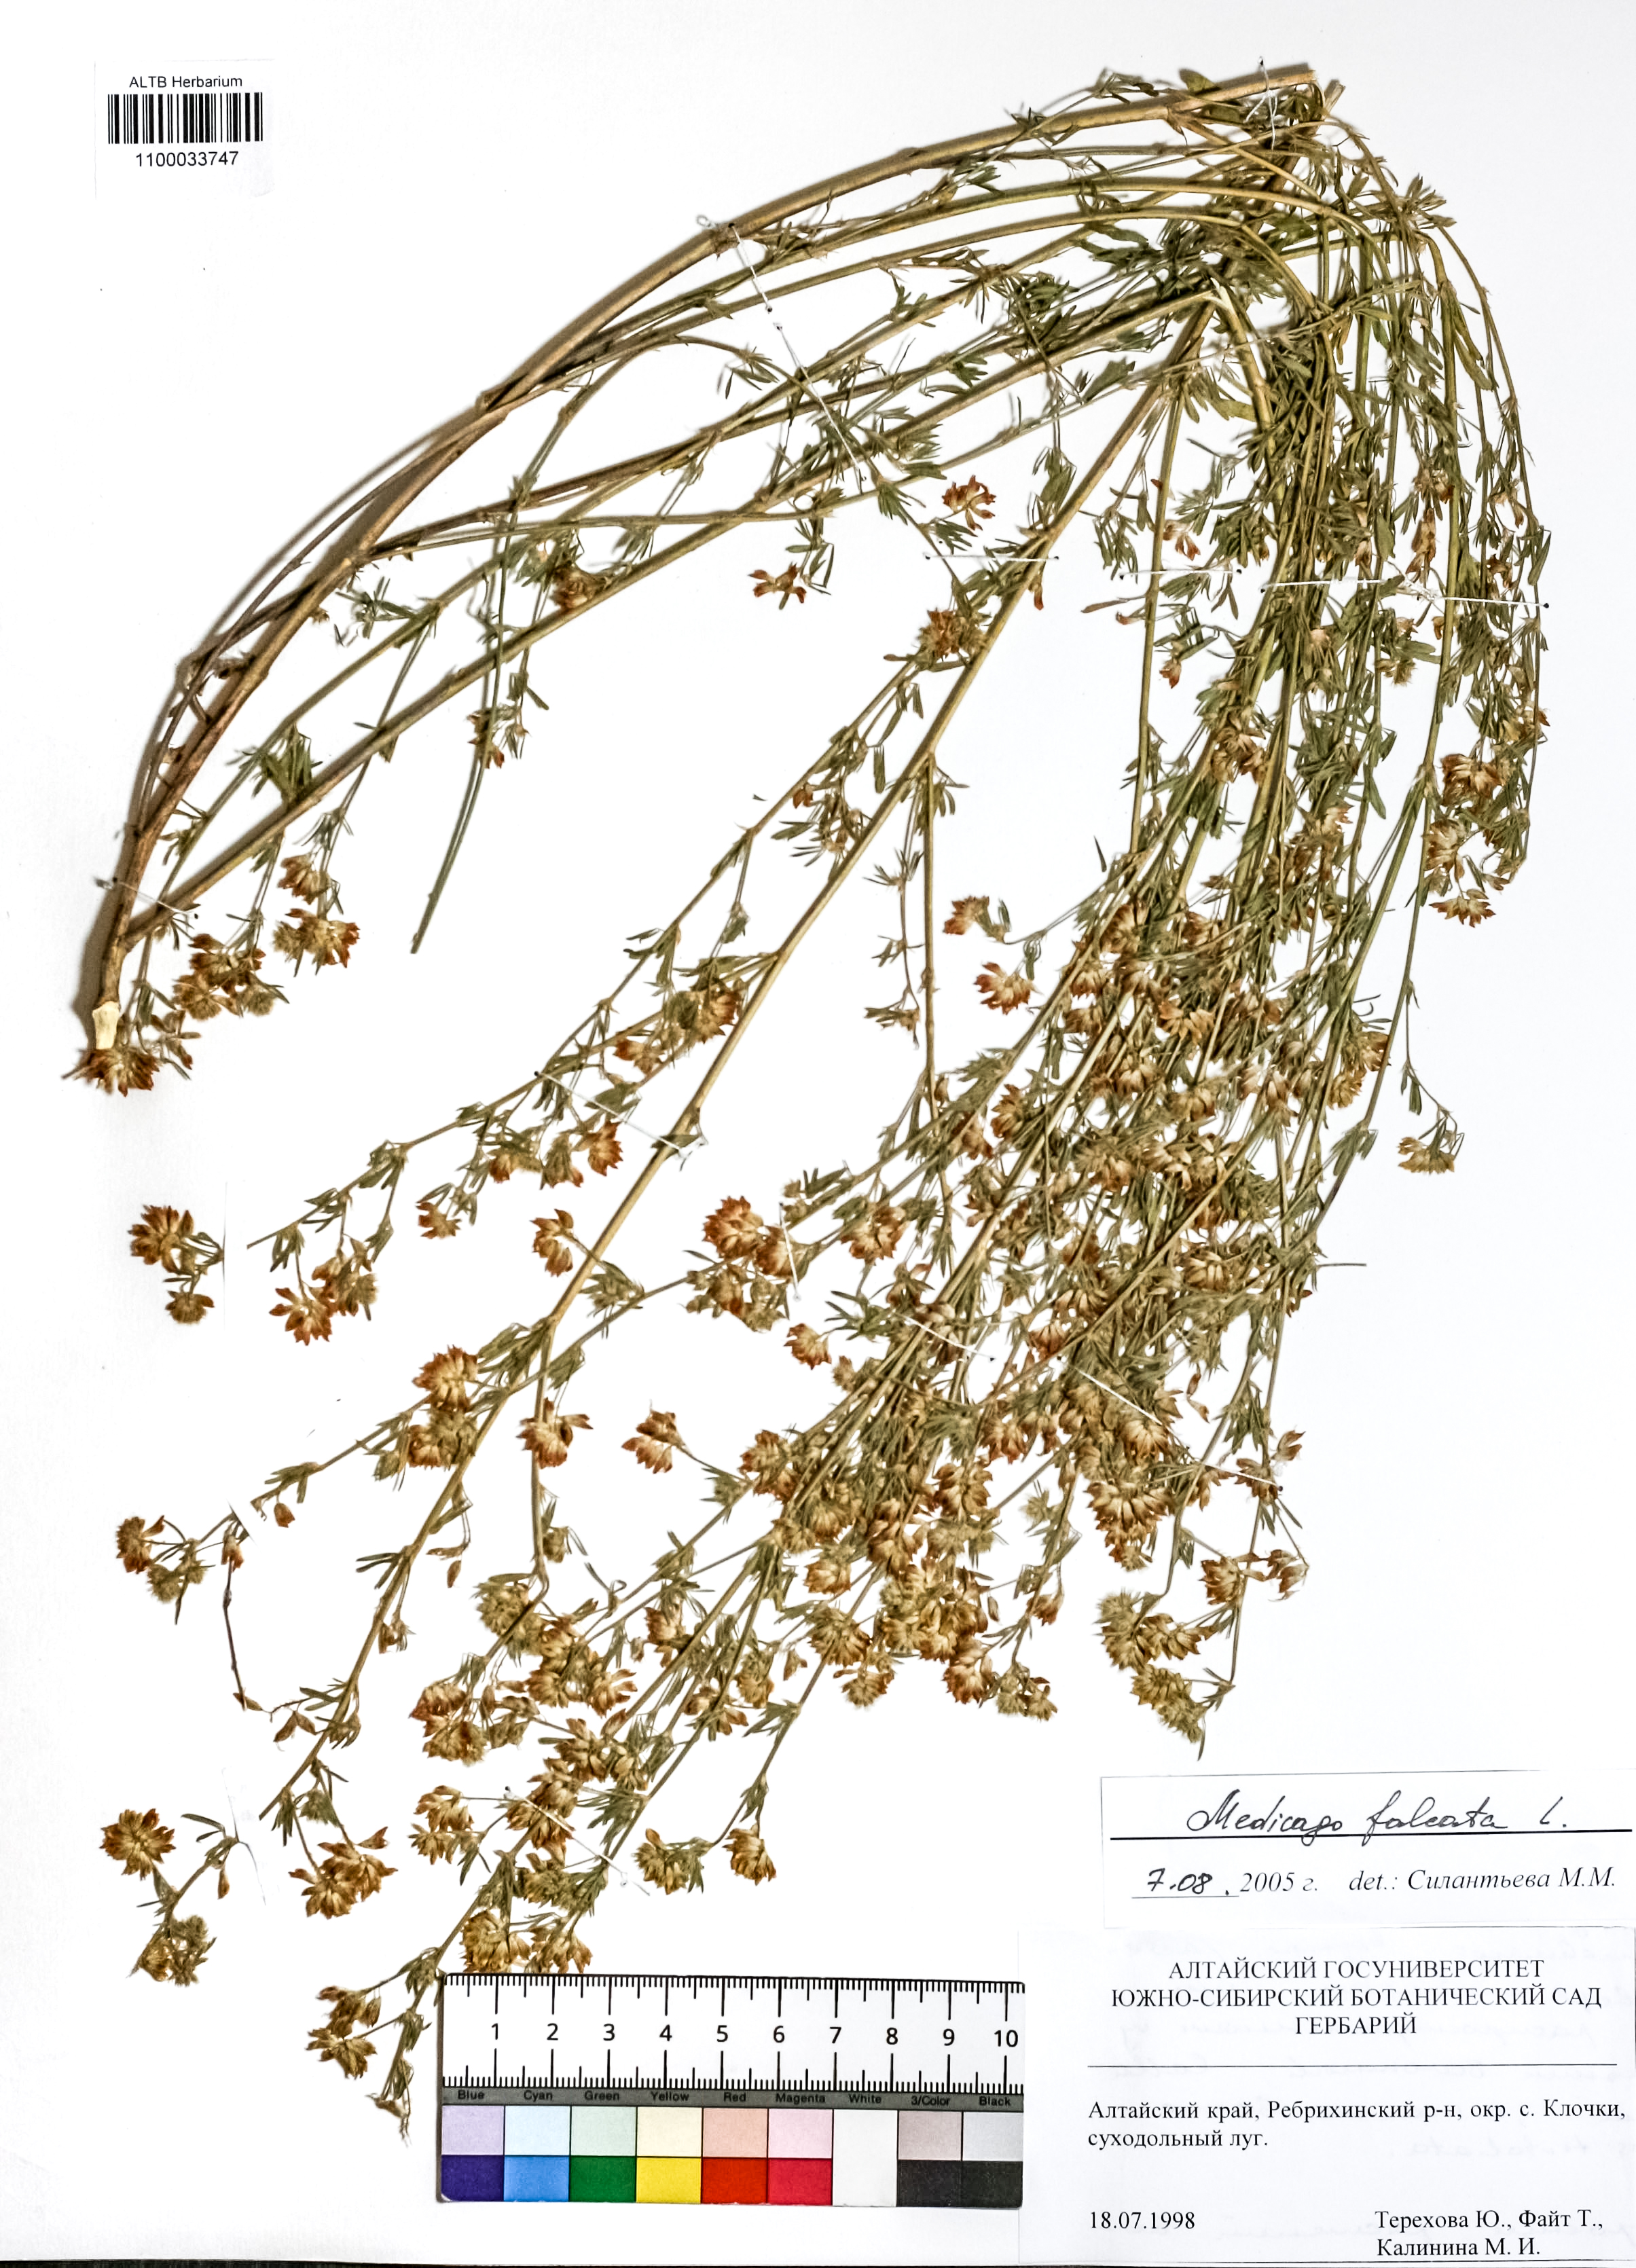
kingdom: Plantae
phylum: Tracheophyta
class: Magnoliopsida
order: Fabales
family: Fabaceae
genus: Medicago
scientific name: Medicago falcata
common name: Sickle medick
